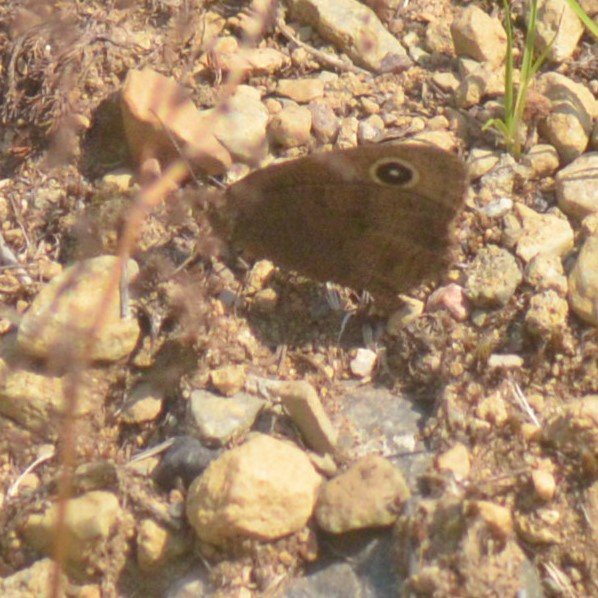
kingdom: Animalia
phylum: Arthropoda
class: Insecta
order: Lepidoptera
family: Nymphalidae
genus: Cercyonis
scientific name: Cercyonis pegala
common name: Common Wood-Nymph
